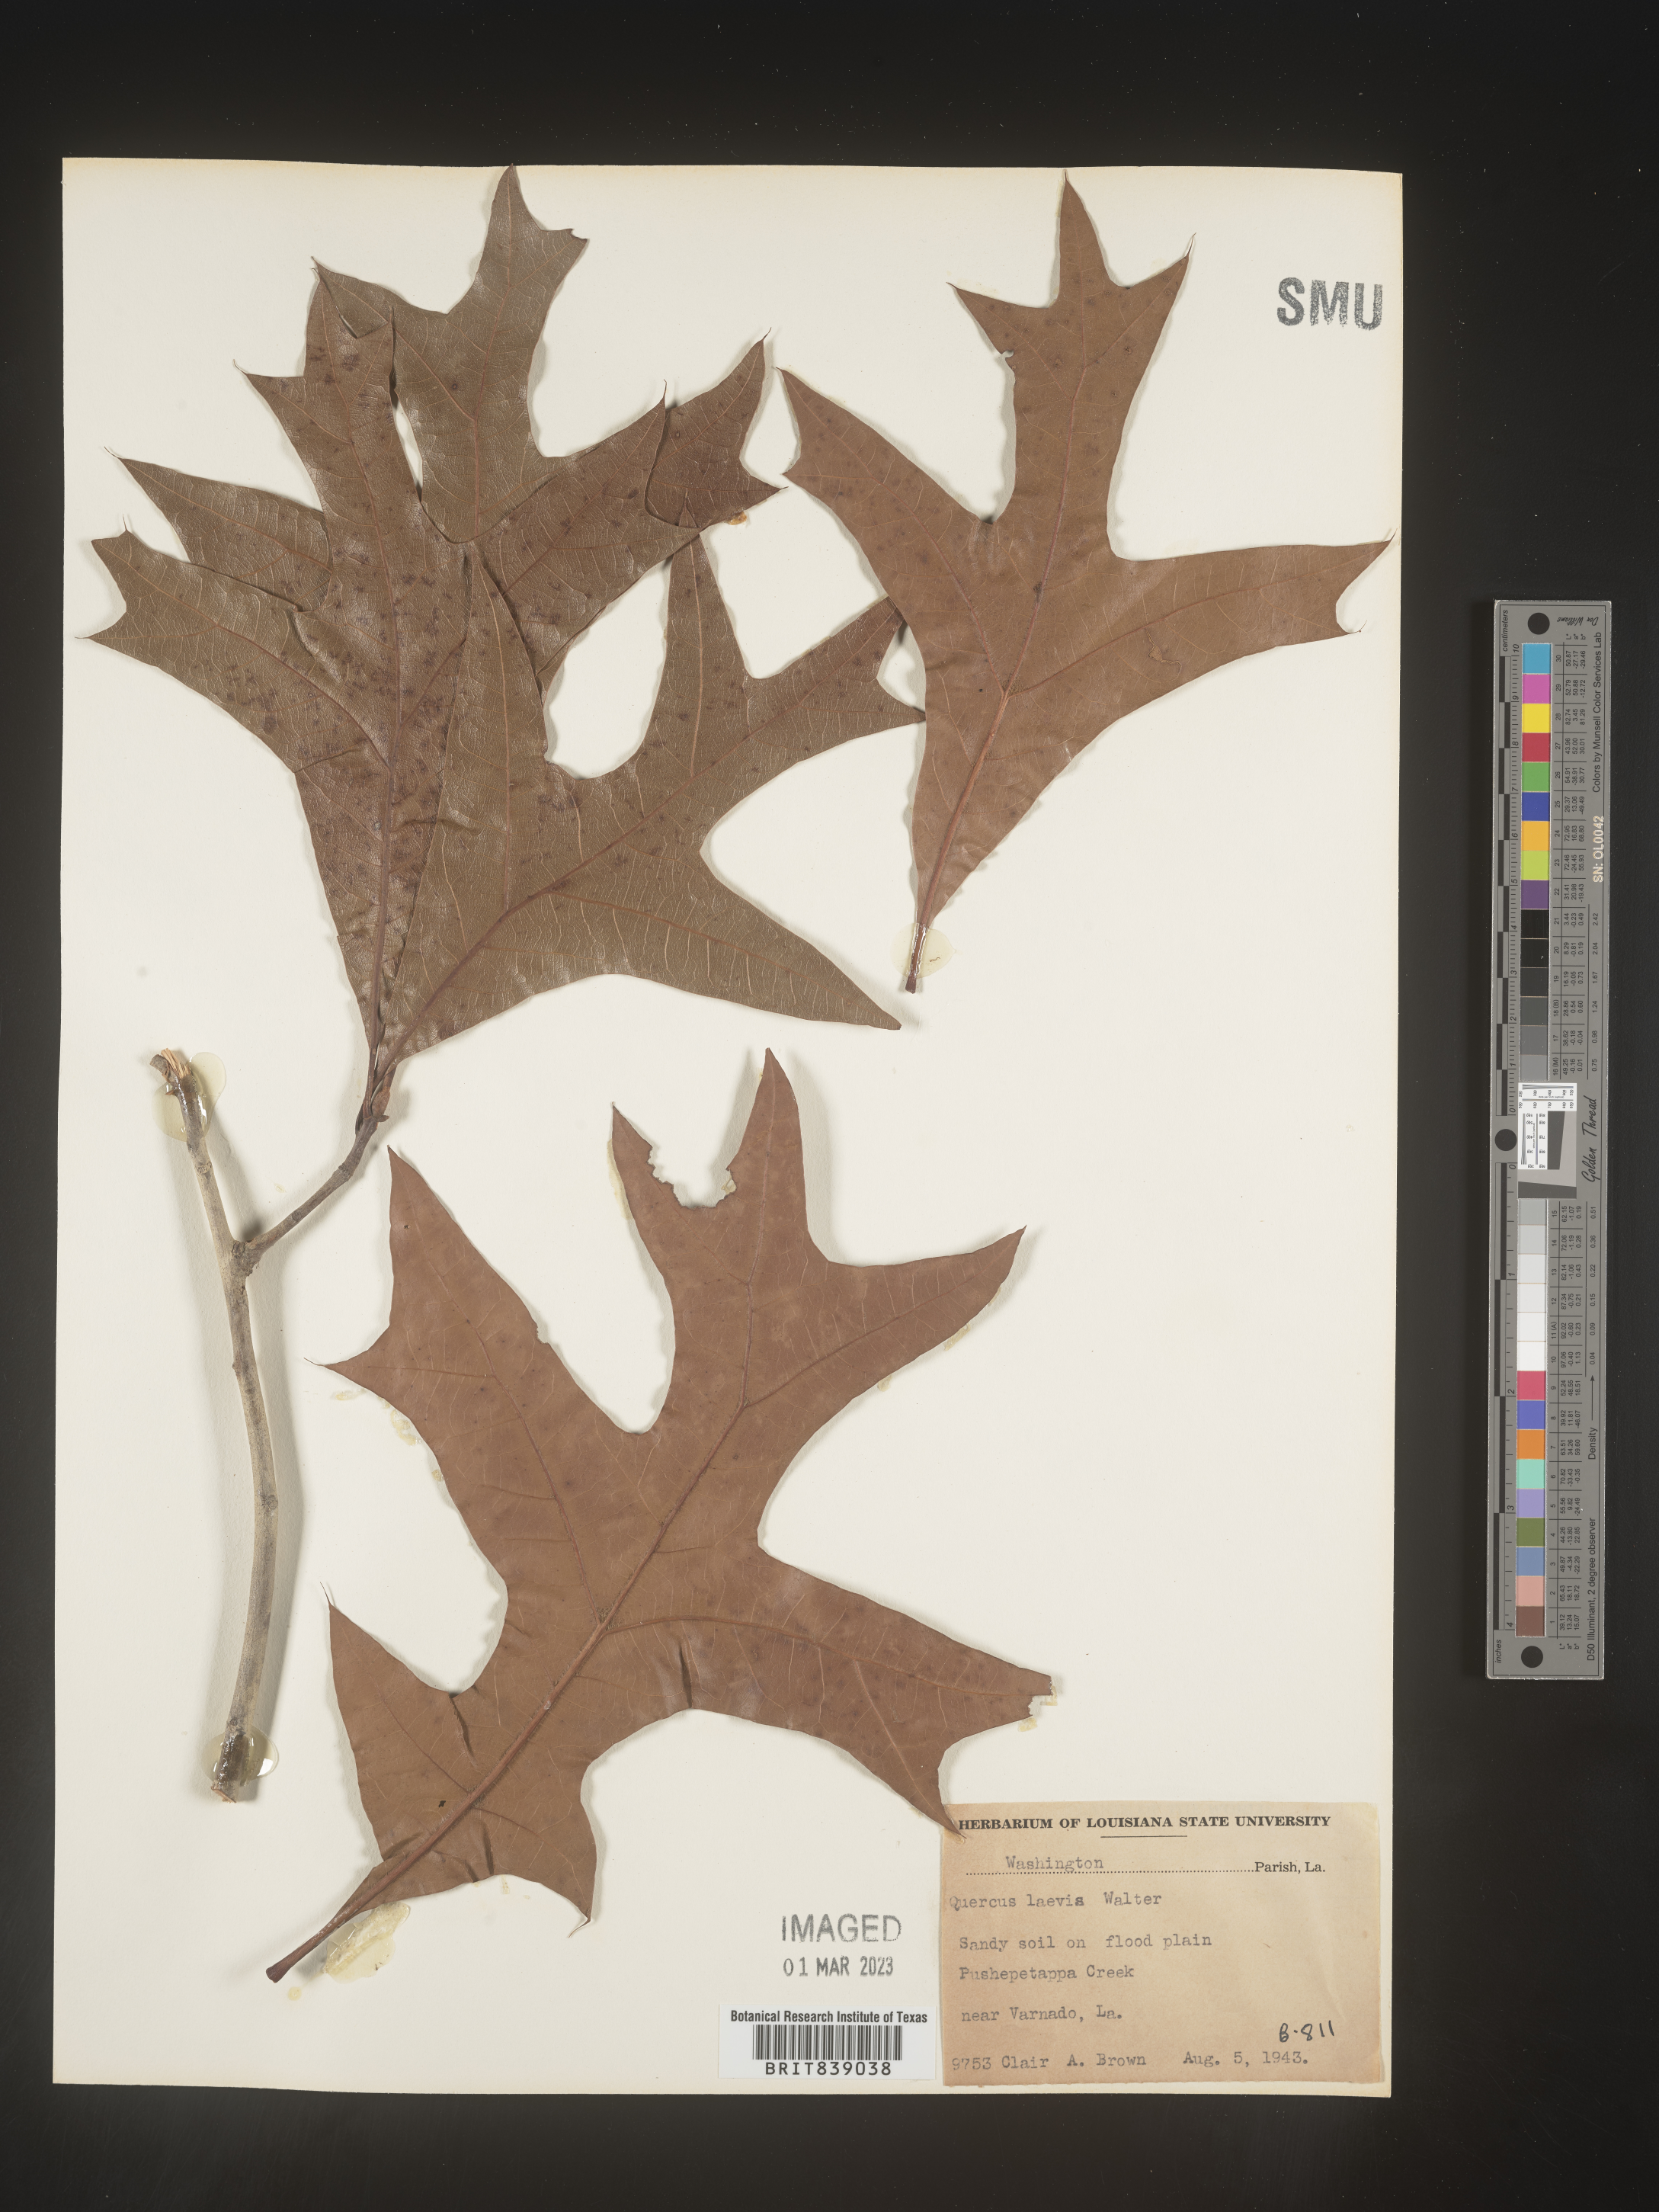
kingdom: Plantae
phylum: Tracheophyta
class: Magnoliopsida
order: Fagales
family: Fagaceae
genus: Quercus
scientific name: Quercus laevis
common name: Turkey oak
